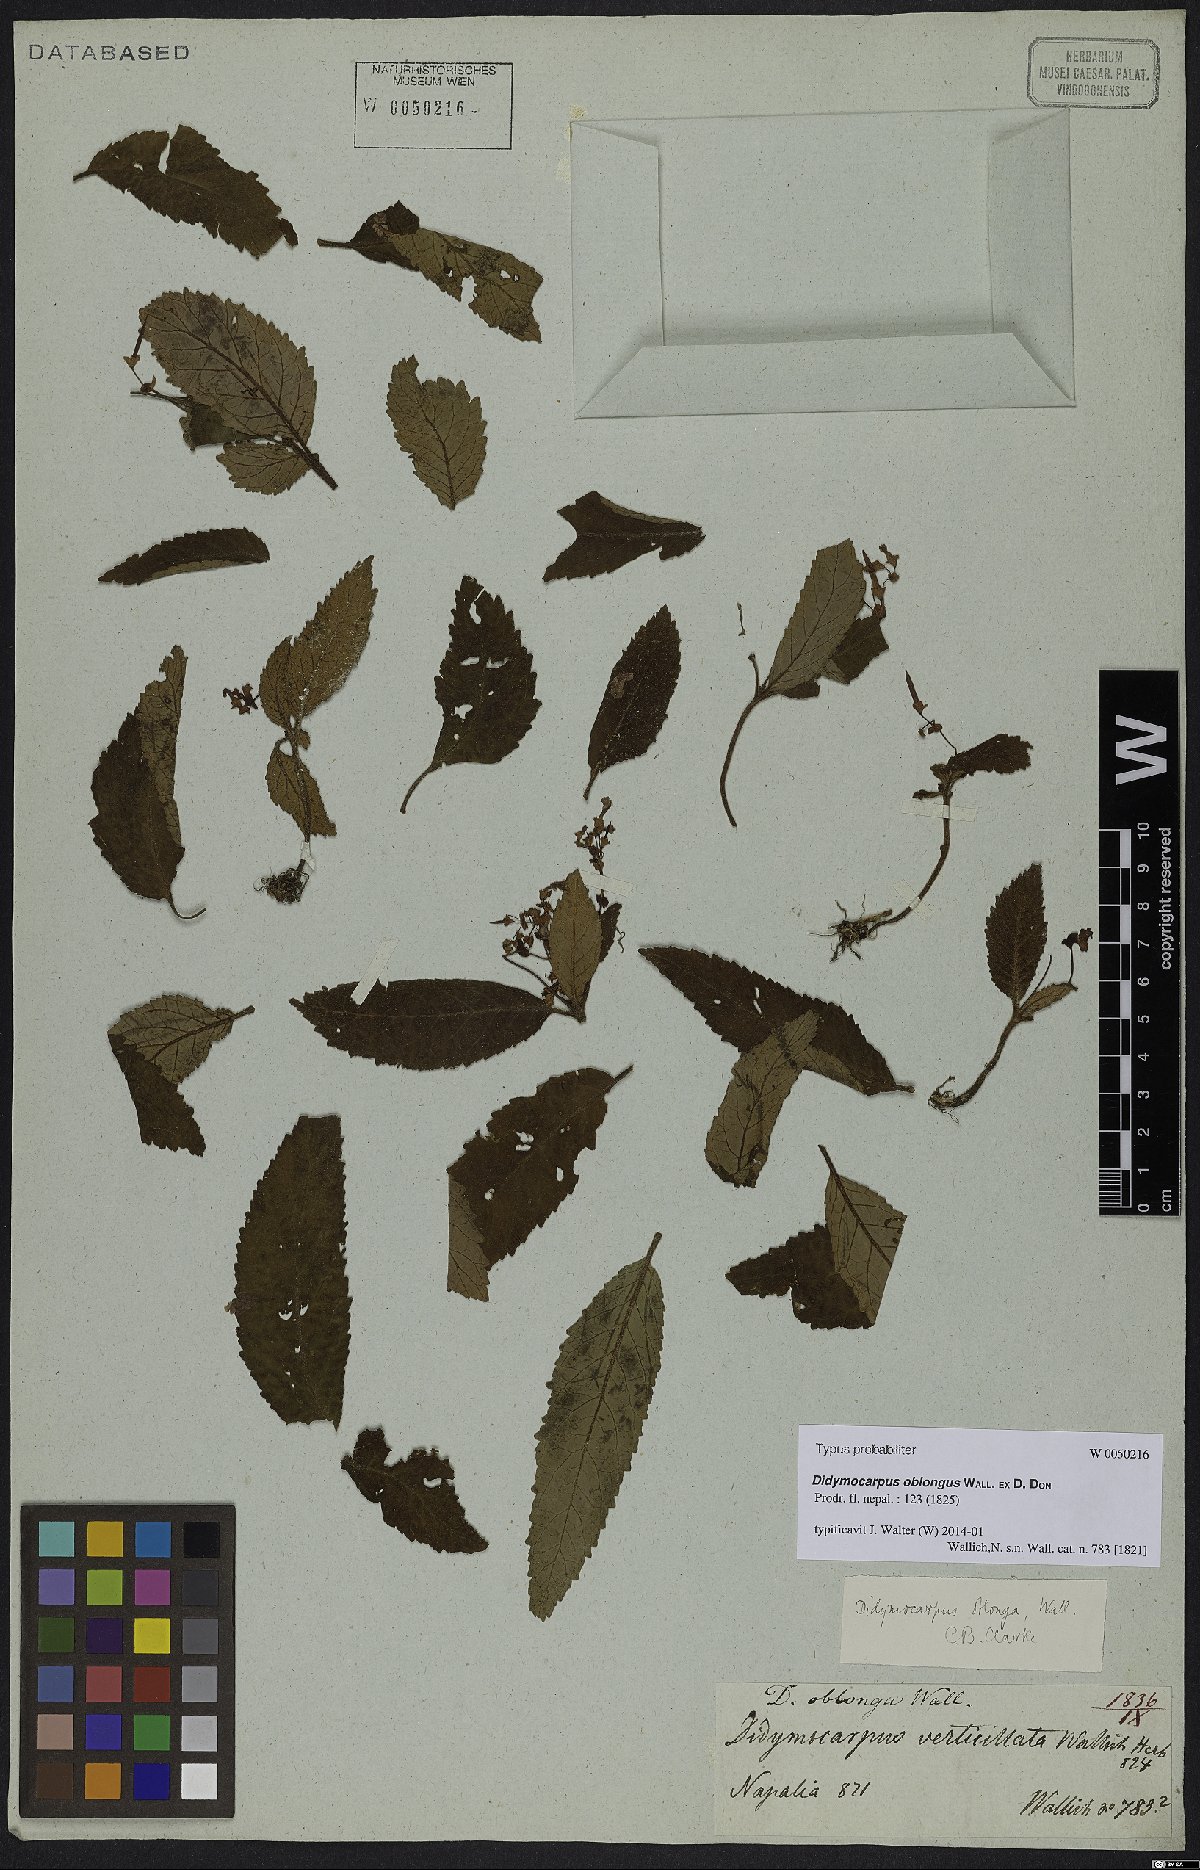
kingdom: Plantae
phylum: Tracheophyta
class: Magnoliopsida
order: Lamiales
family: Gesneriaceae
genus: Didymocarpus
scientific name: Didymocarpus oblongus
